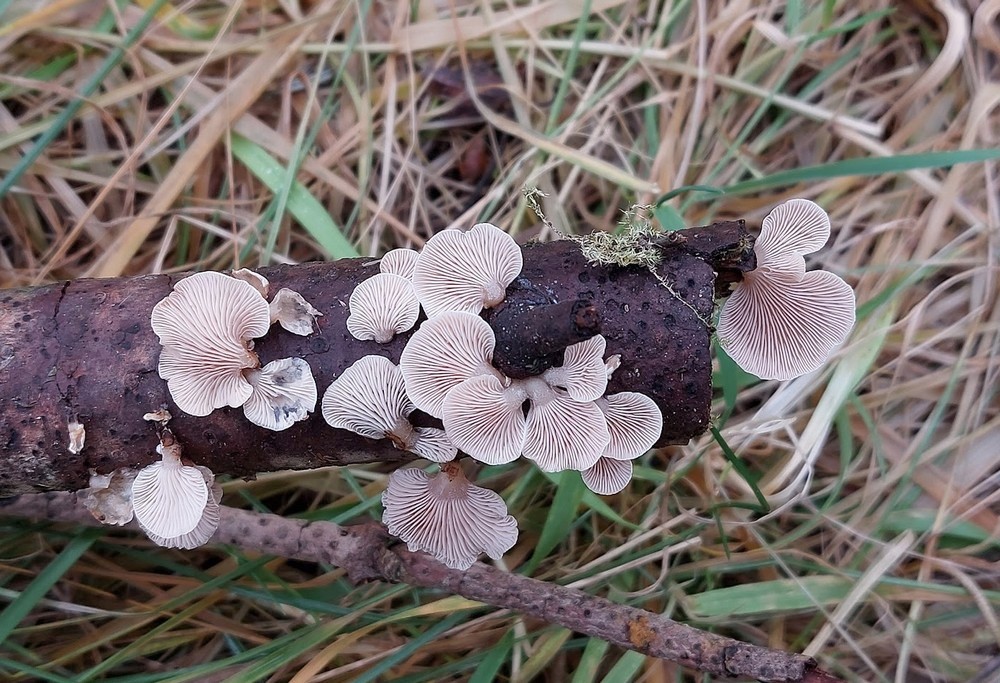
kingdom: Fungi
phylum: Basidiomycota
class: Agaricomycetes
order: Agaricales
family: Mycenaceae
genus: Panellus
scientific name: Panellus mitis
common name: mild epaulethat
